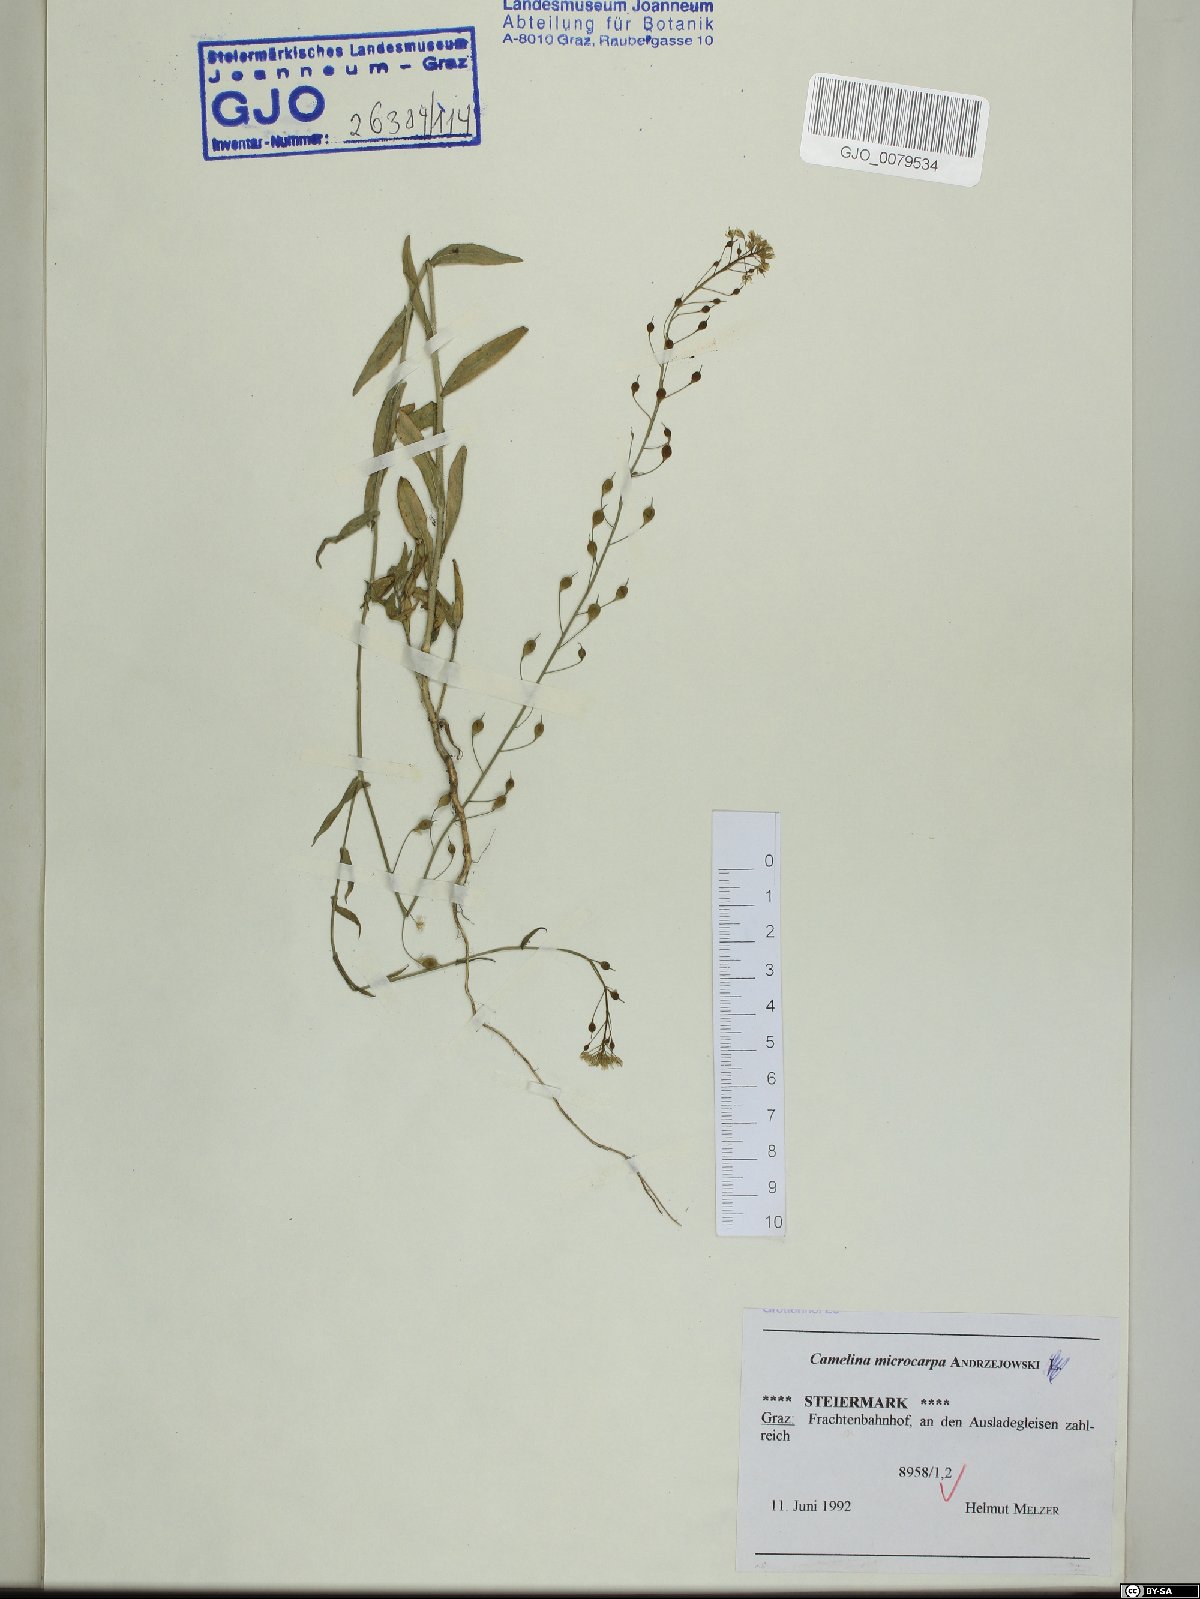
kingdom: Plantae
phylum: Tracheophyta
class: Magnoliopsida
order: Brassicales
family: Brassicaceae
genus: Camelina
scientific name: Camelina microcarpa
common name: Lesser gold-of-pleasure
